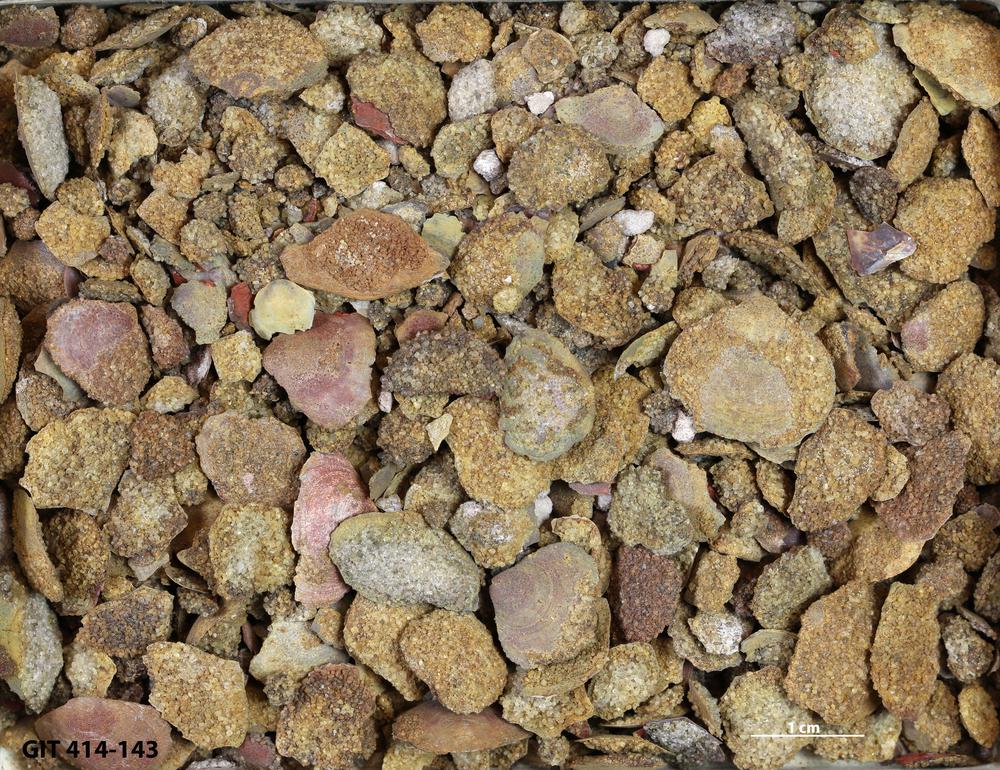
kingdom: Animalia
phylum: Brachiopoda
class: Lingulata
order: Lingulida
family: Obolidae
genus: Obolus
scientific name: Obolus apollinis
